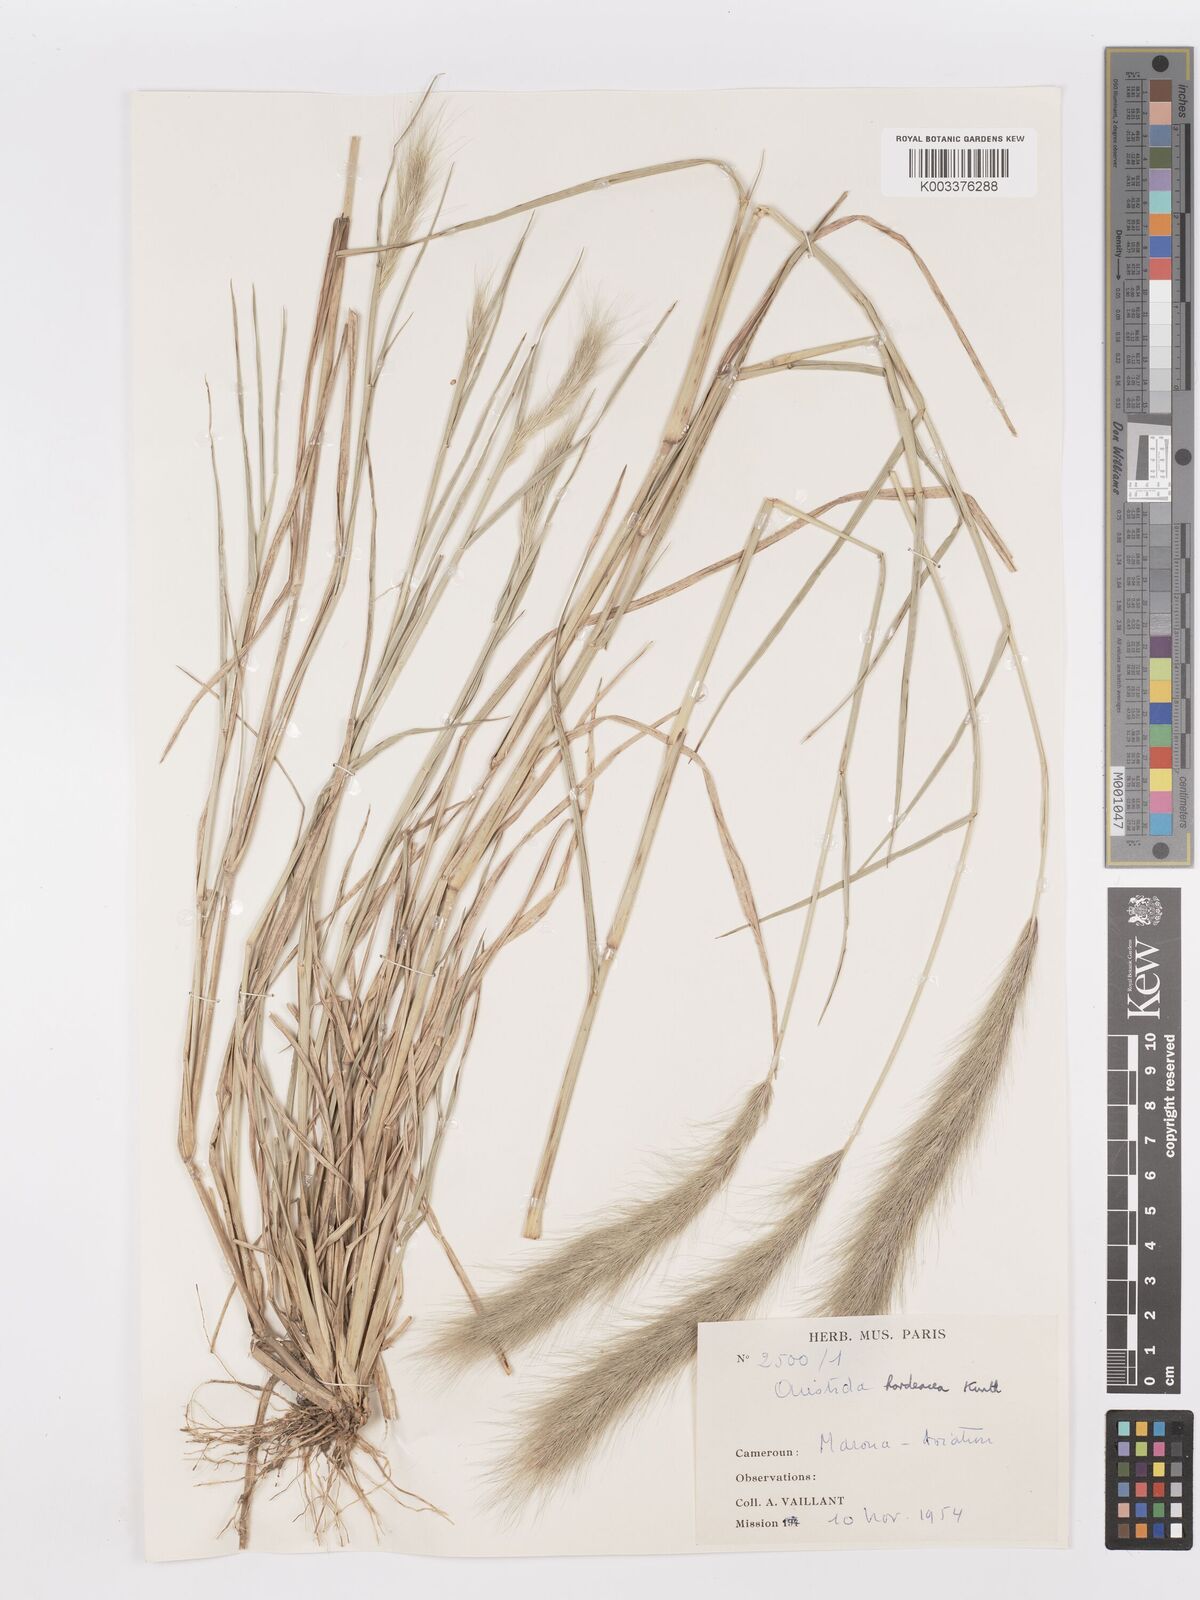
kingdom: Plantae
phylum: Tracheophyta
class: Liliopsida
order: Poales
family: Poaceae
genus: Aristida
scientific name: Aristida hordeacea
